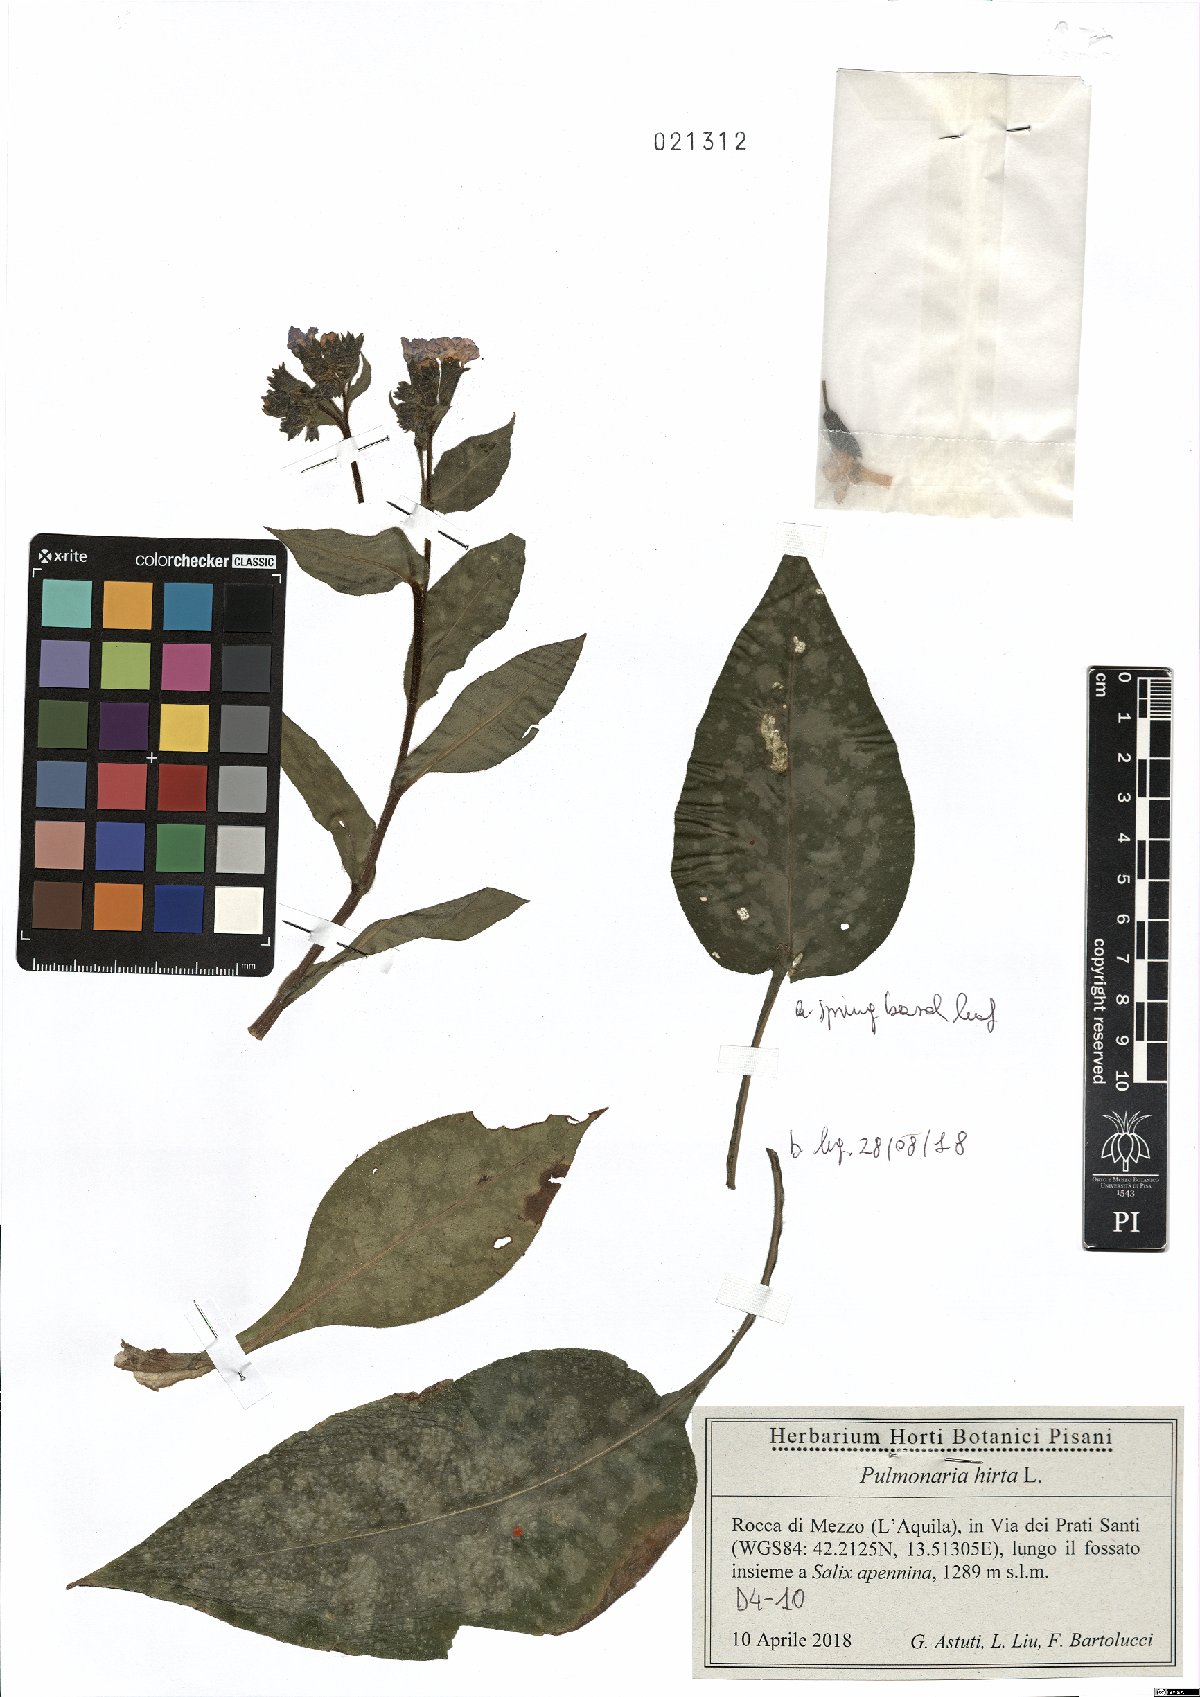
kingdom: Plantae
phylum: Tracheophyta
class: Magnoliopsida
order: Boraginales
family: Boraginaceae
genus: Pulmonaria
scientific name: Pulmonaria hirta
